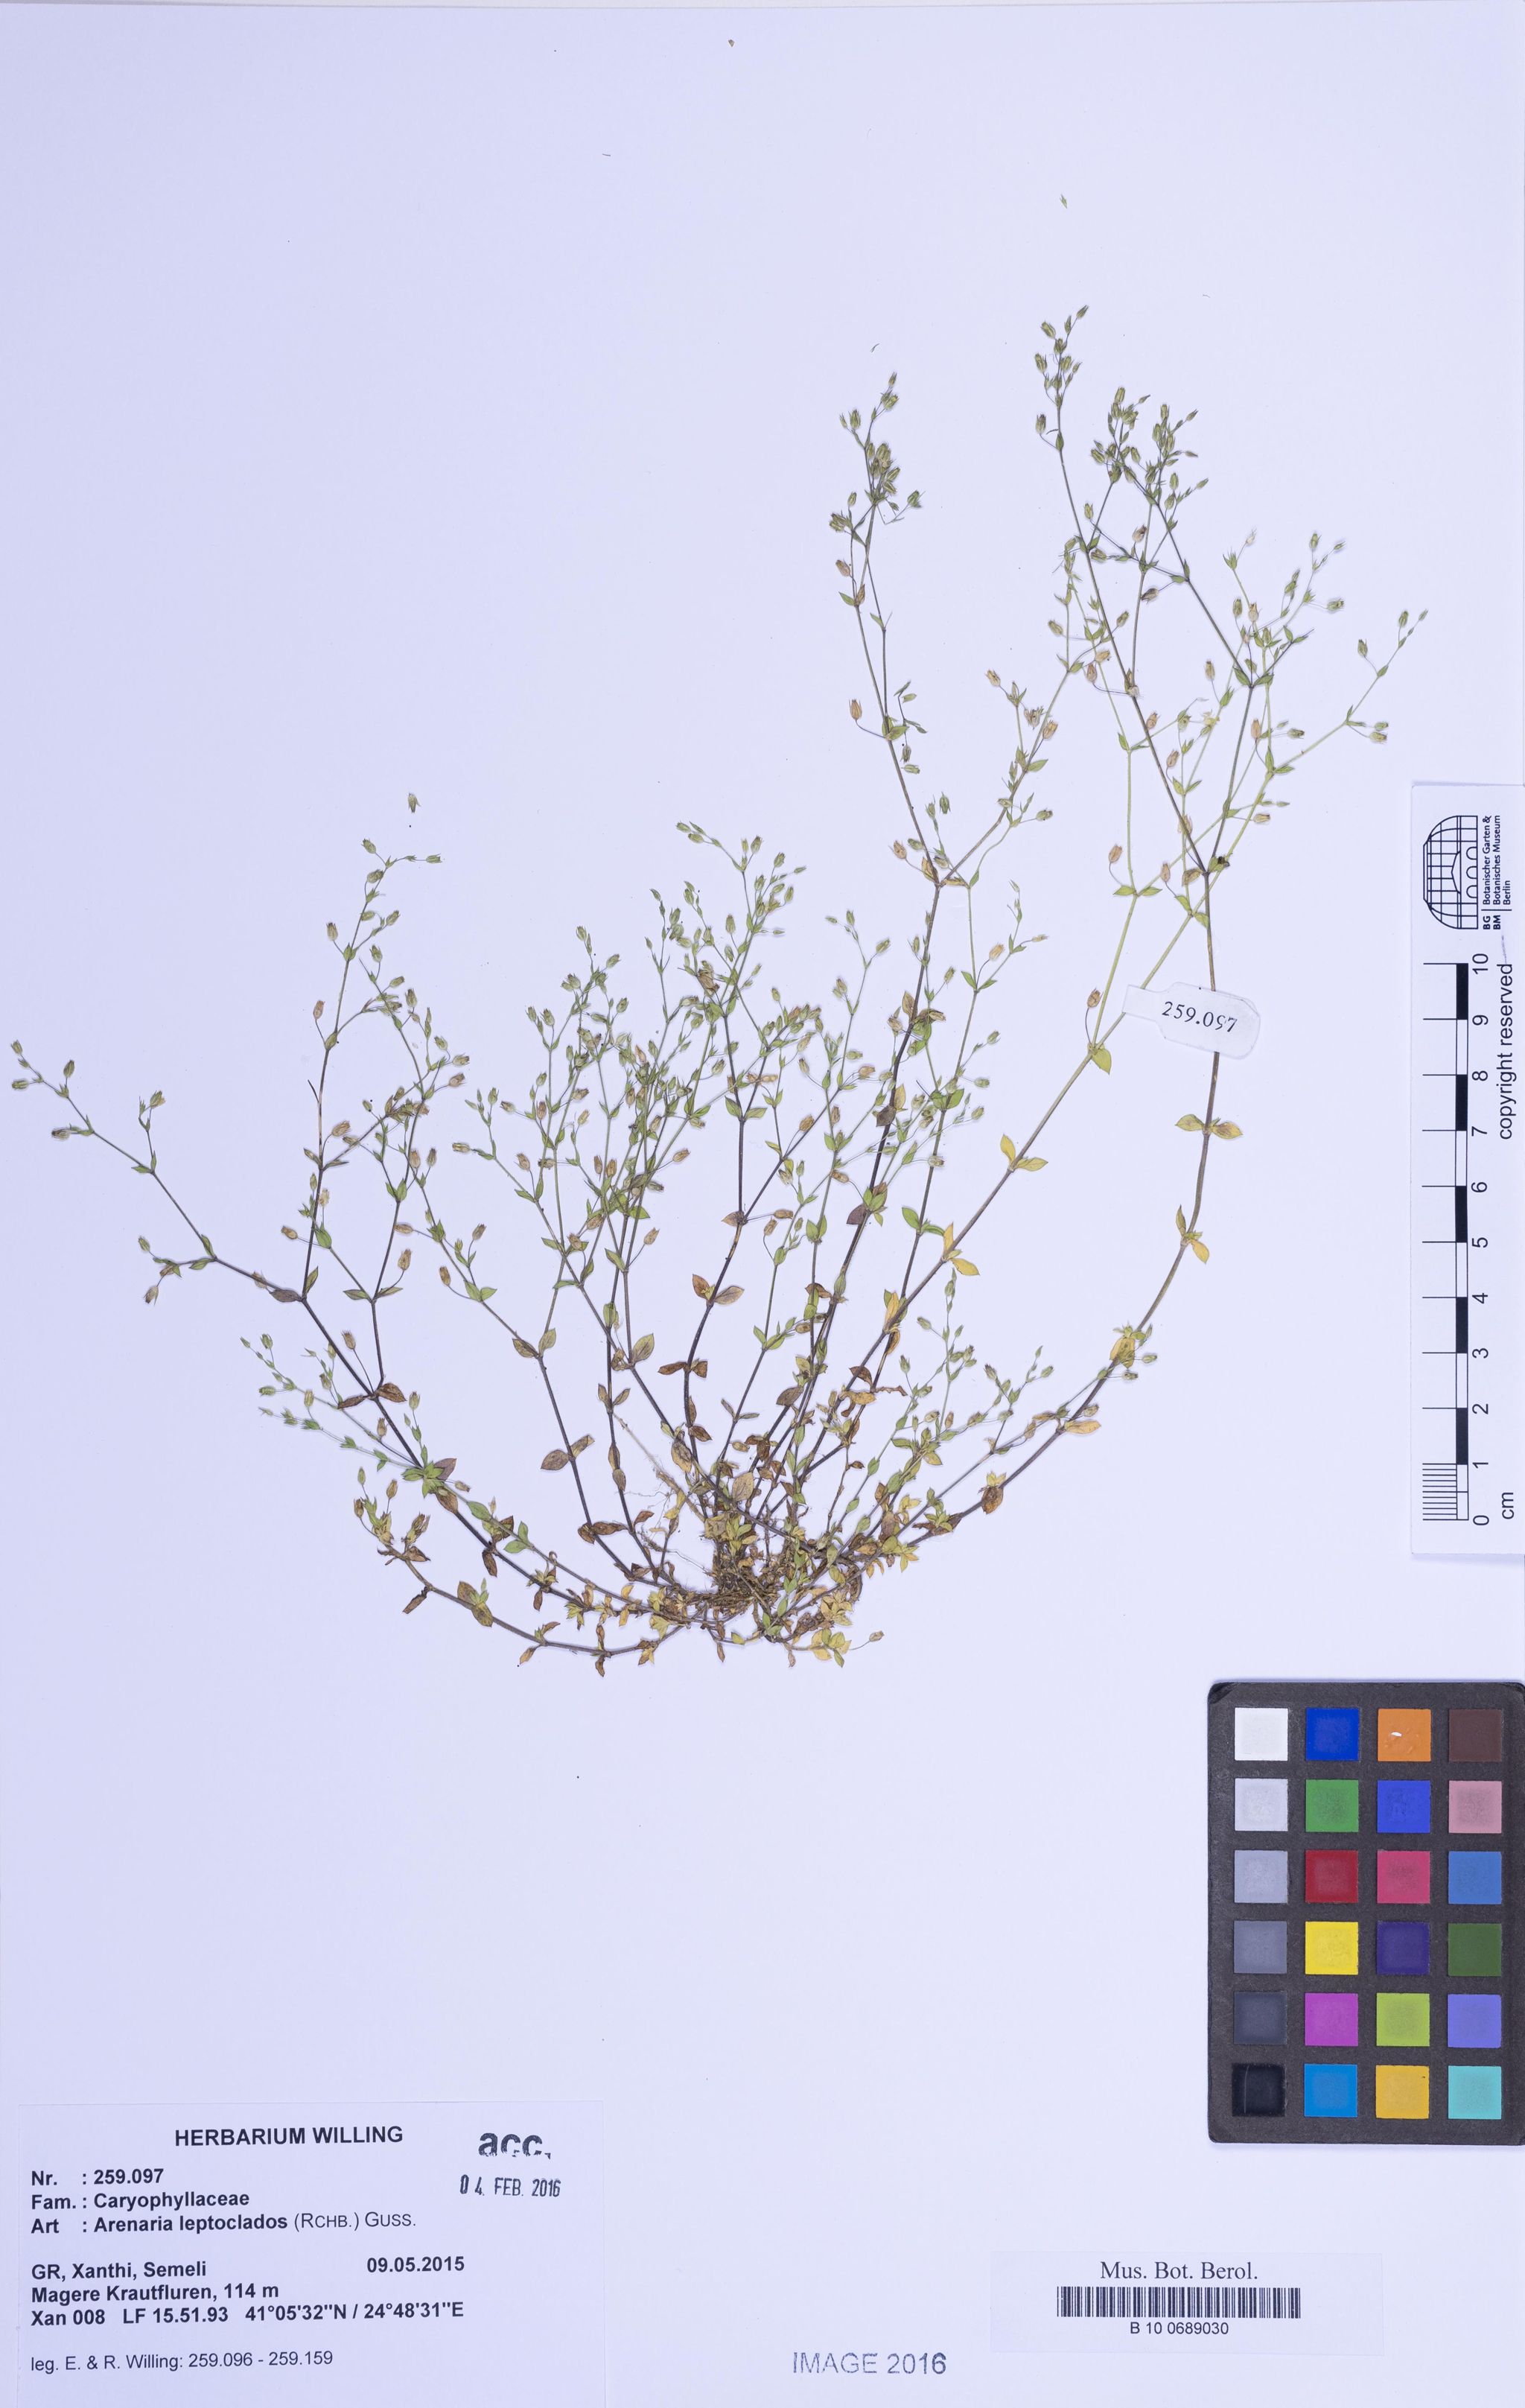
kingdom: Plantae
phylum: Tracheophyta
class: Magnoliopsida
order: Caryophyllales
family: Caryophyllaceae
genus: Arenaria
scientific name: Arenaria leptoclados
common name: Thyme-leaved sandwort
